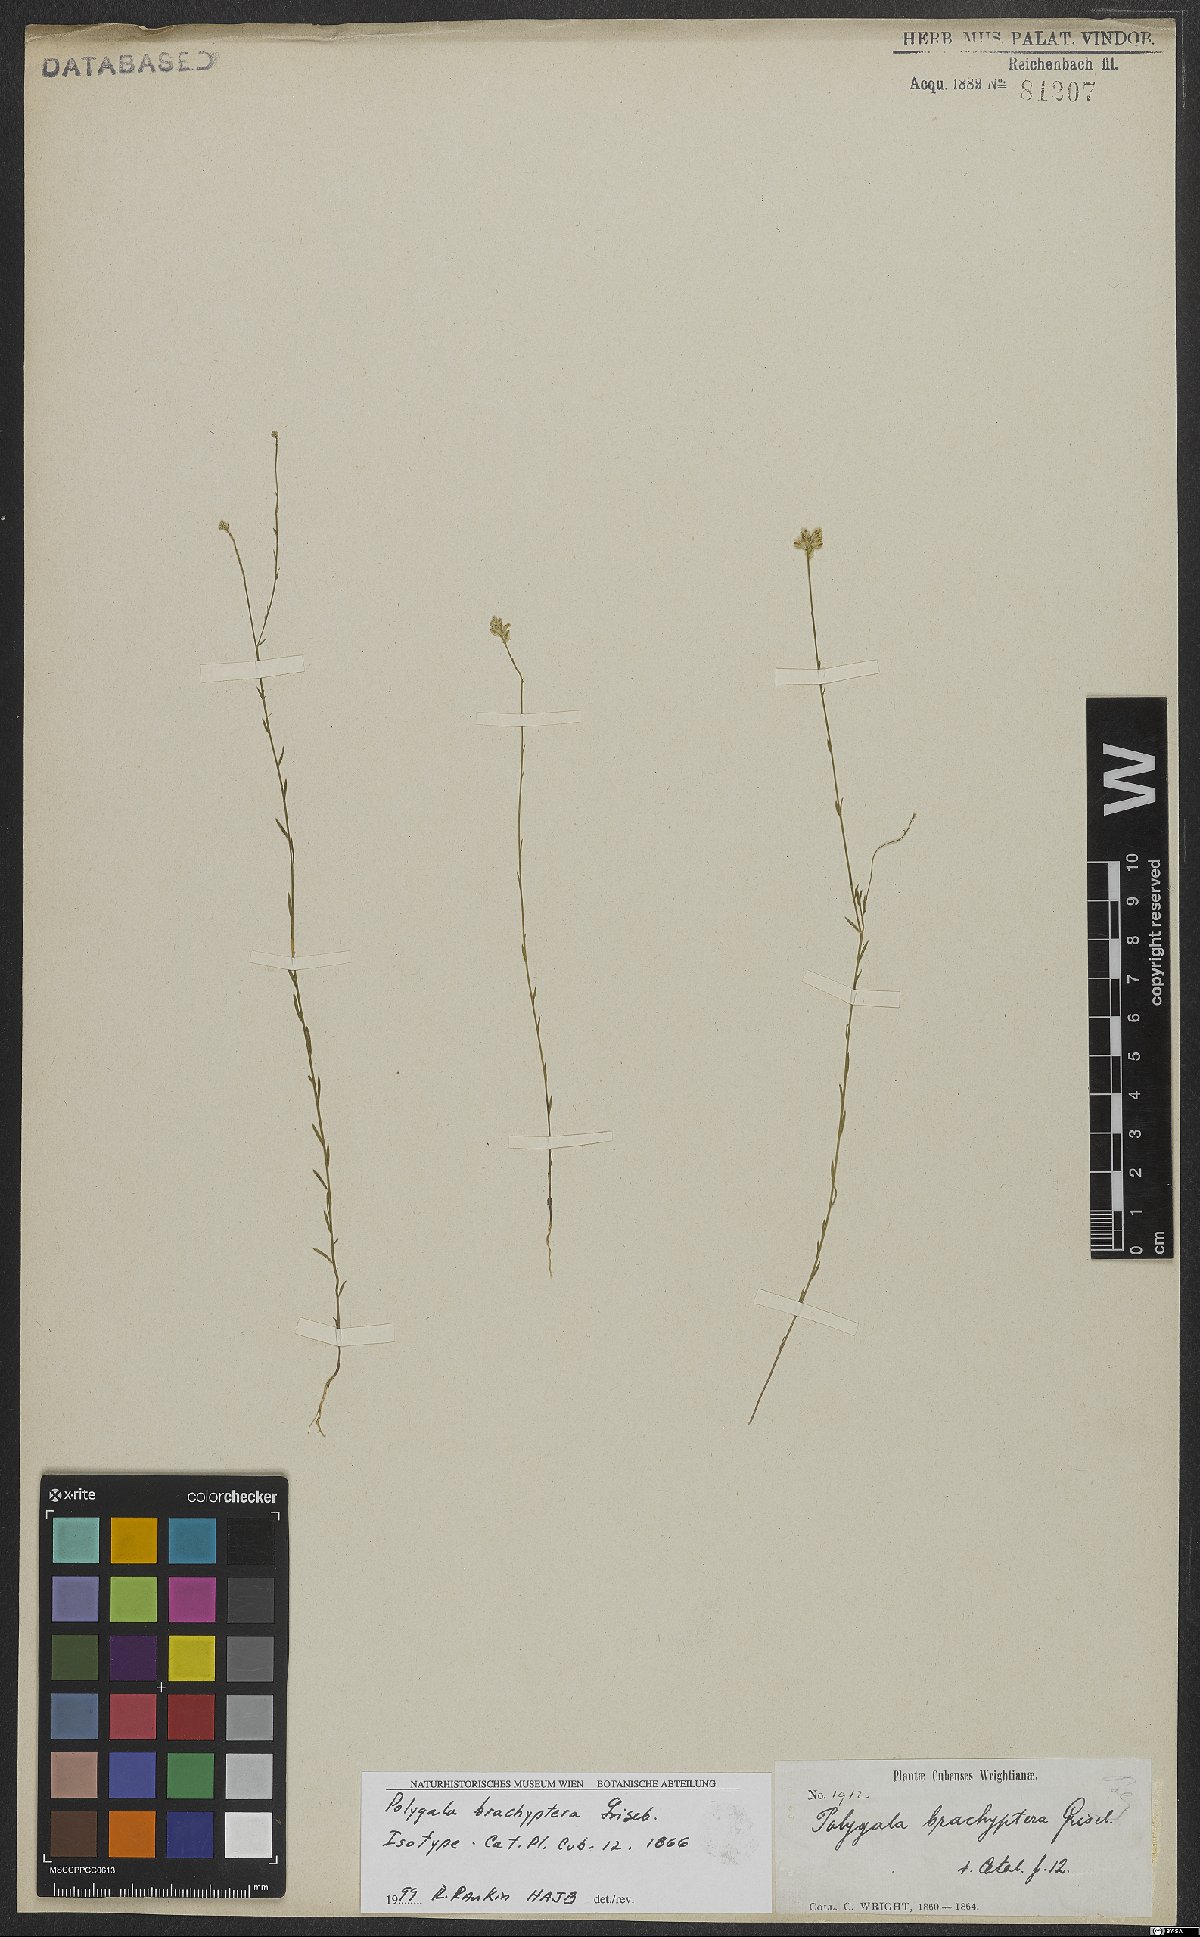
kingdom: Plantae
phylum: Tracheophyta
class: Magnoliopsida
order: Fabales
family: Polygalaceae
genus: Polygala
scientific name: Polygala brachyptera
